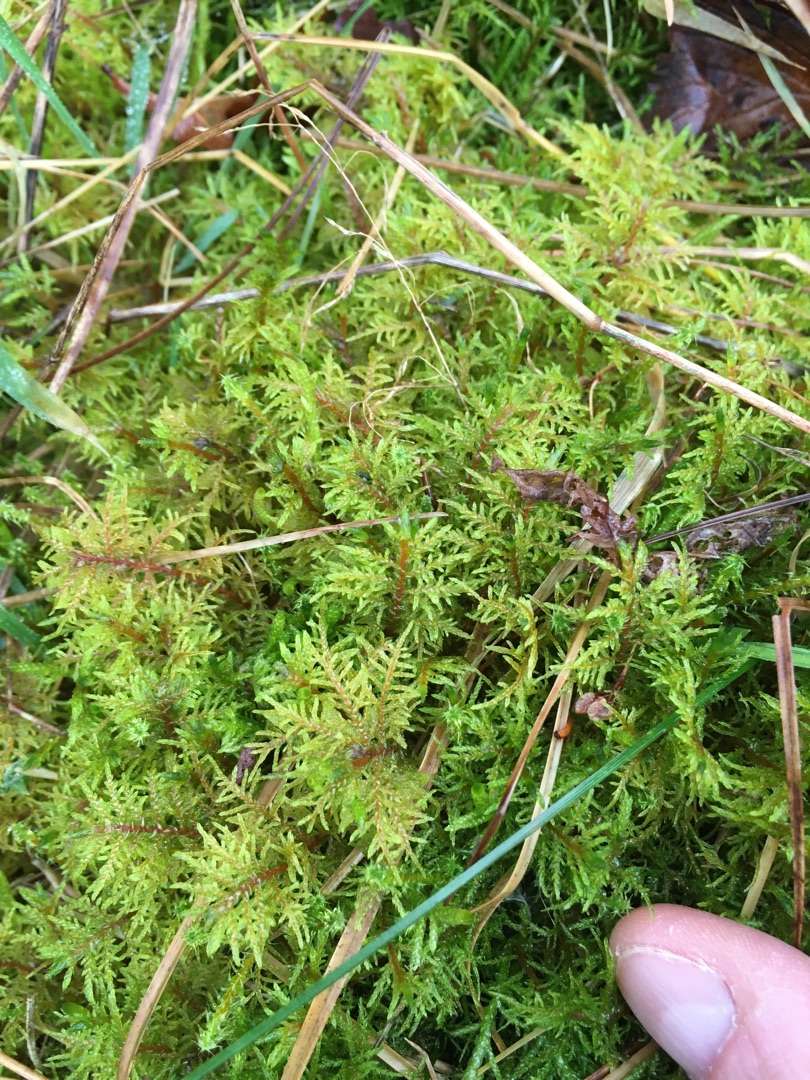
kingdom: Plantae
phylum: Bryophyta
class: Bryopsida
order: Hypnales
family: Hylocomiaceae
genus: Hylocomium
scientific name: Hylocomium splendens
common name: Almindelig etagemos
